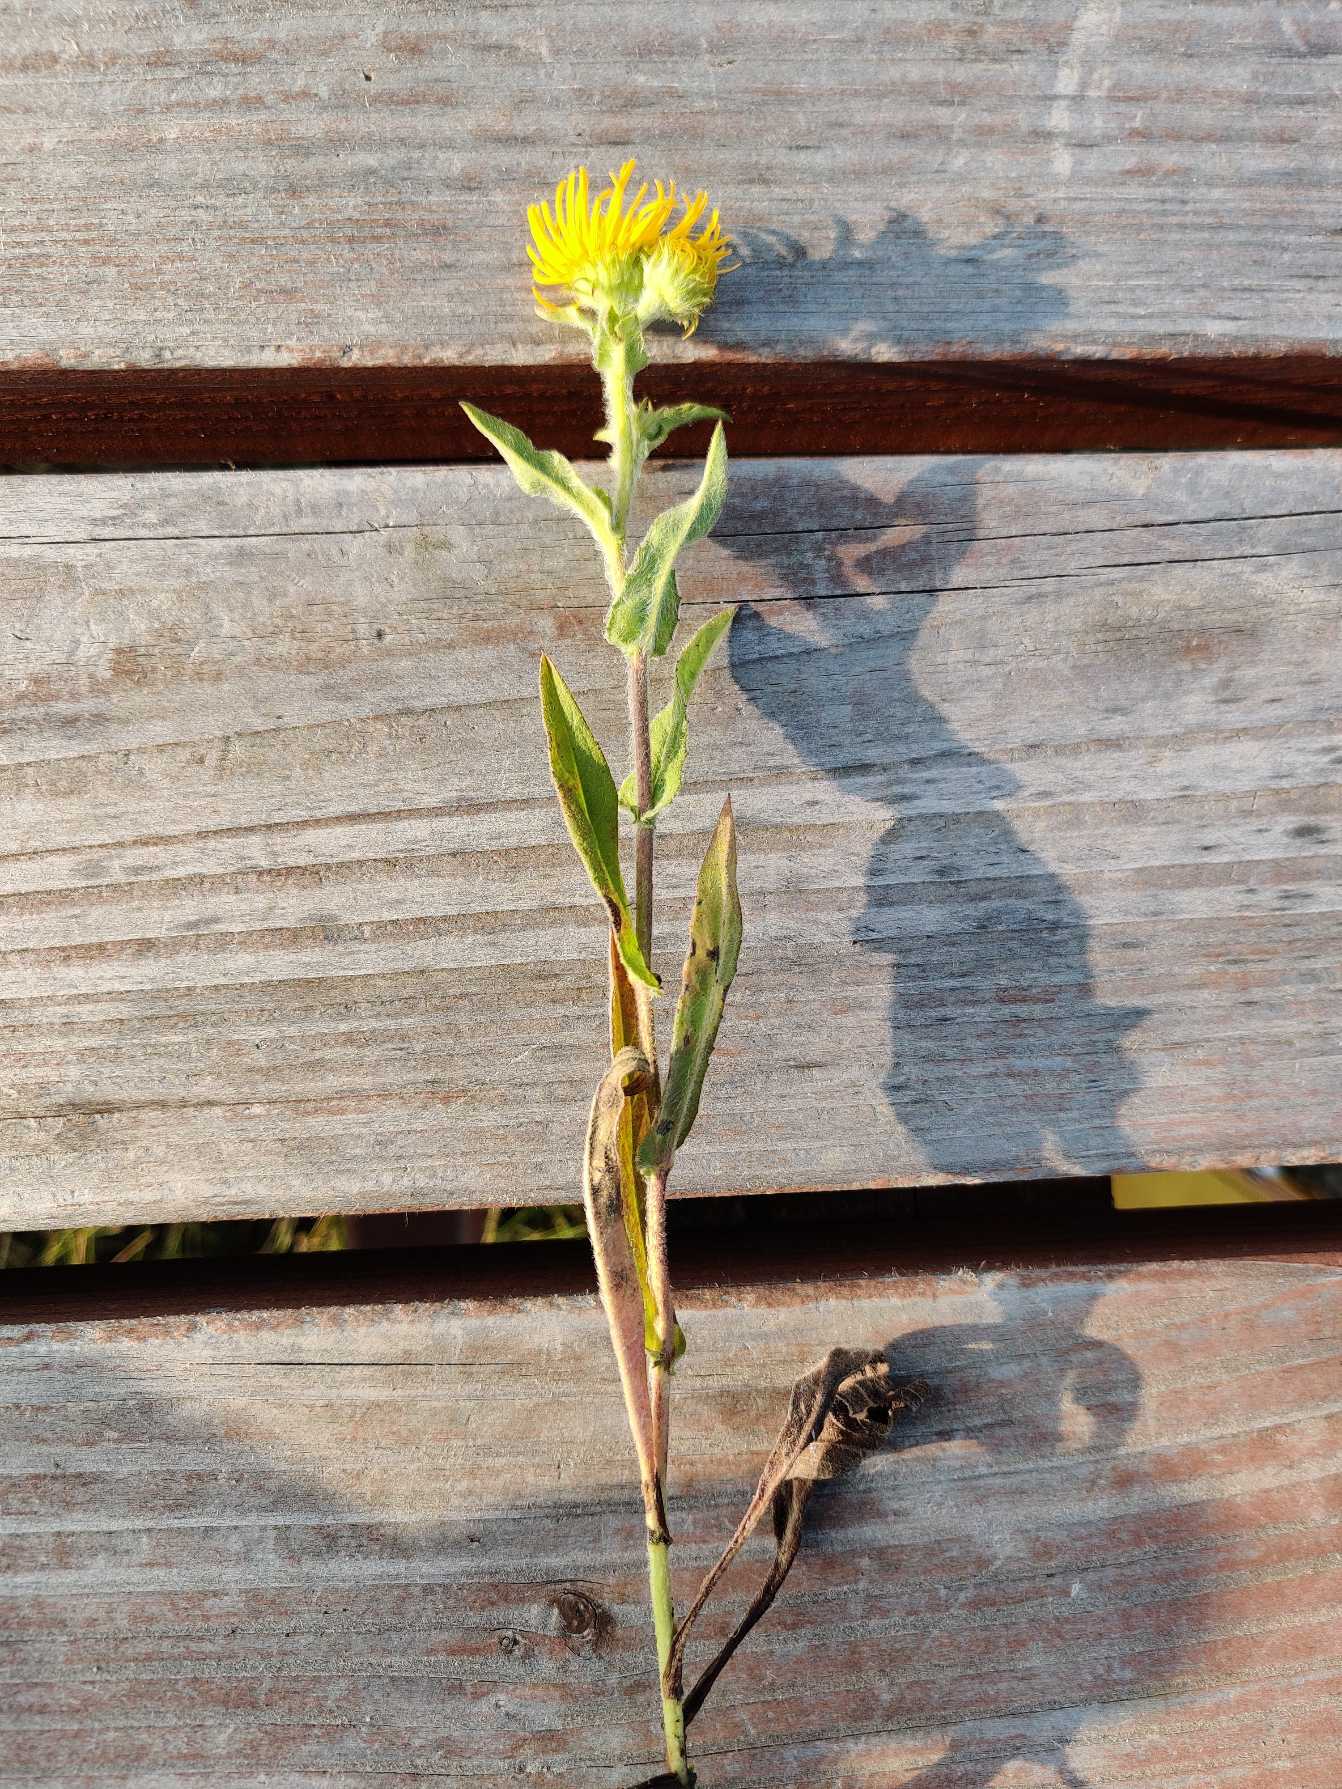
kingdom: Plantae
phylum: Tracheophyta
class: Magnoliopsida
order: Asterales
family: Asteraceae
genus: Pentanema
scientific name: Pentanema britannicum
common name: Soløje-alant
